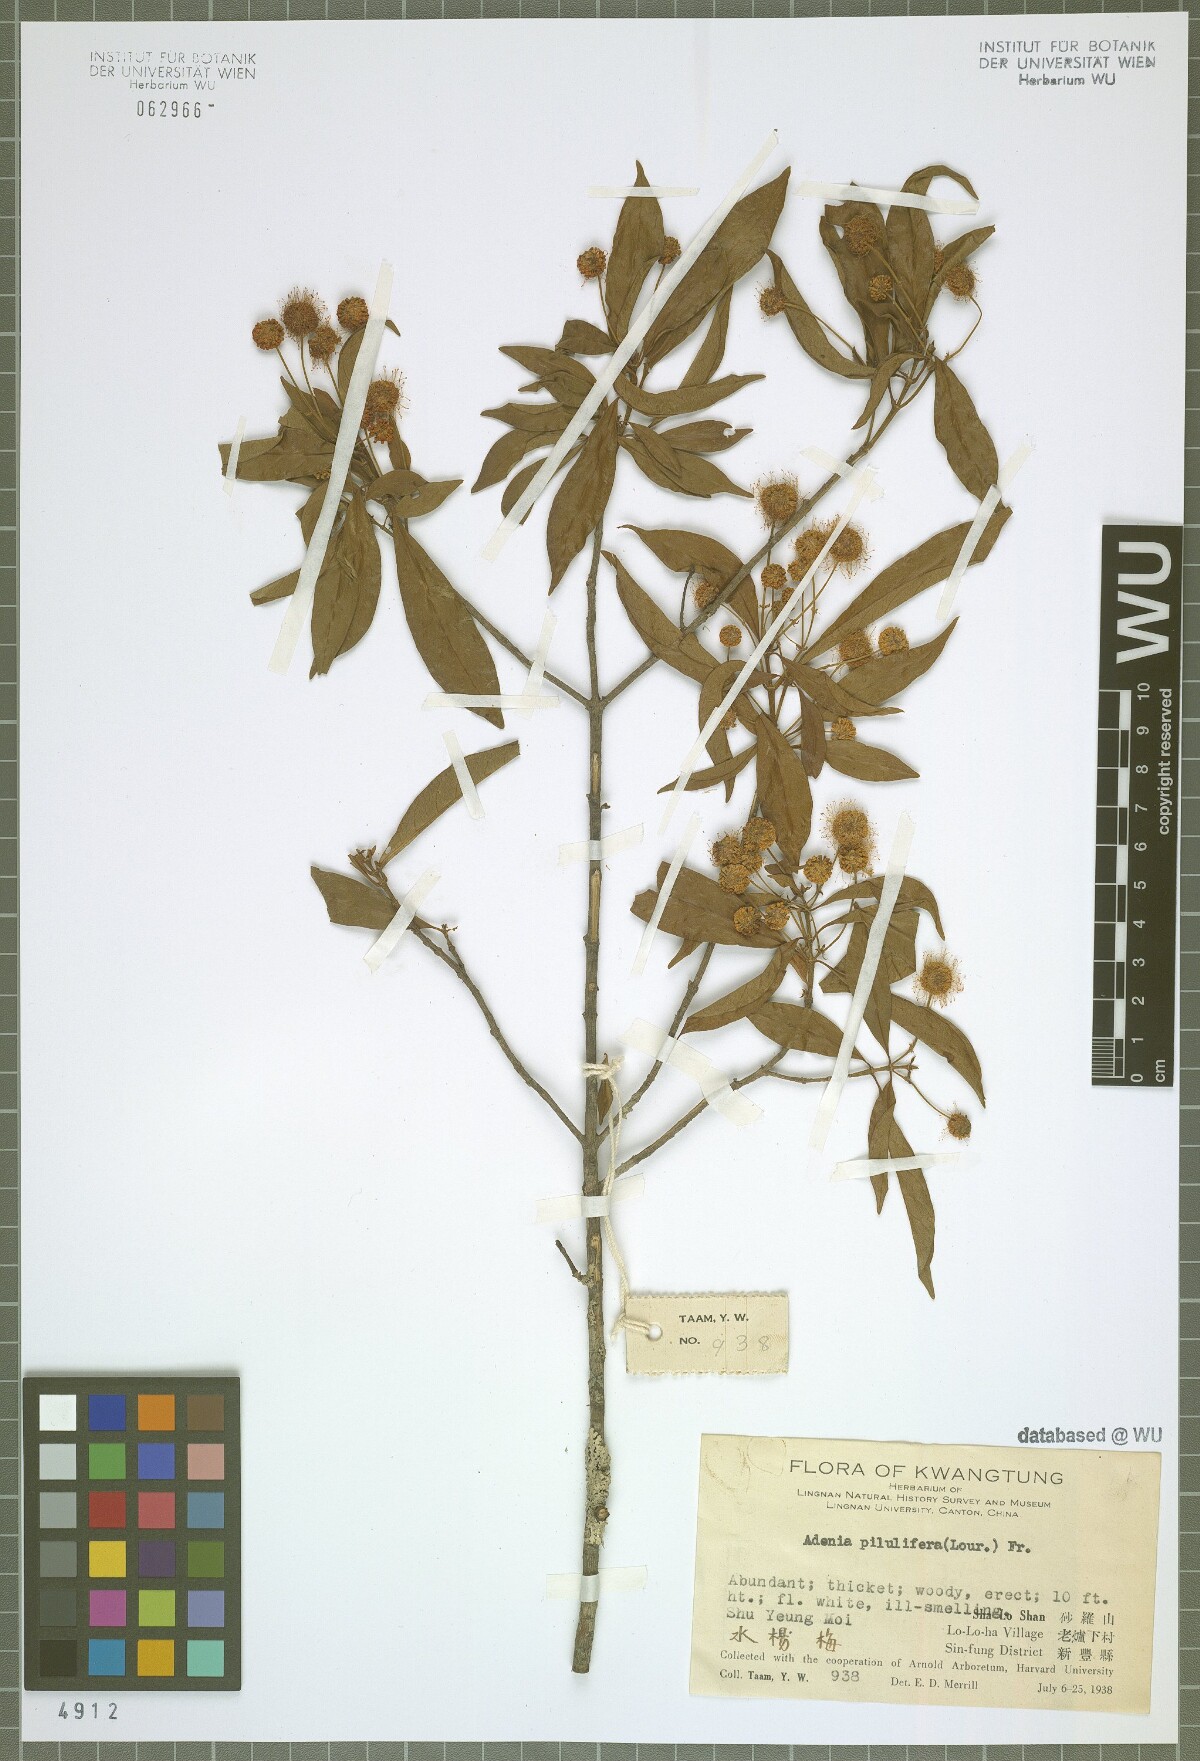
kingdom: Plantae
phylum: Tracheophyta
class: Magnoliopsida
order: Gentianales
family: Rubiaceae
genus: Adina
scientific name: Adina pilulifera
